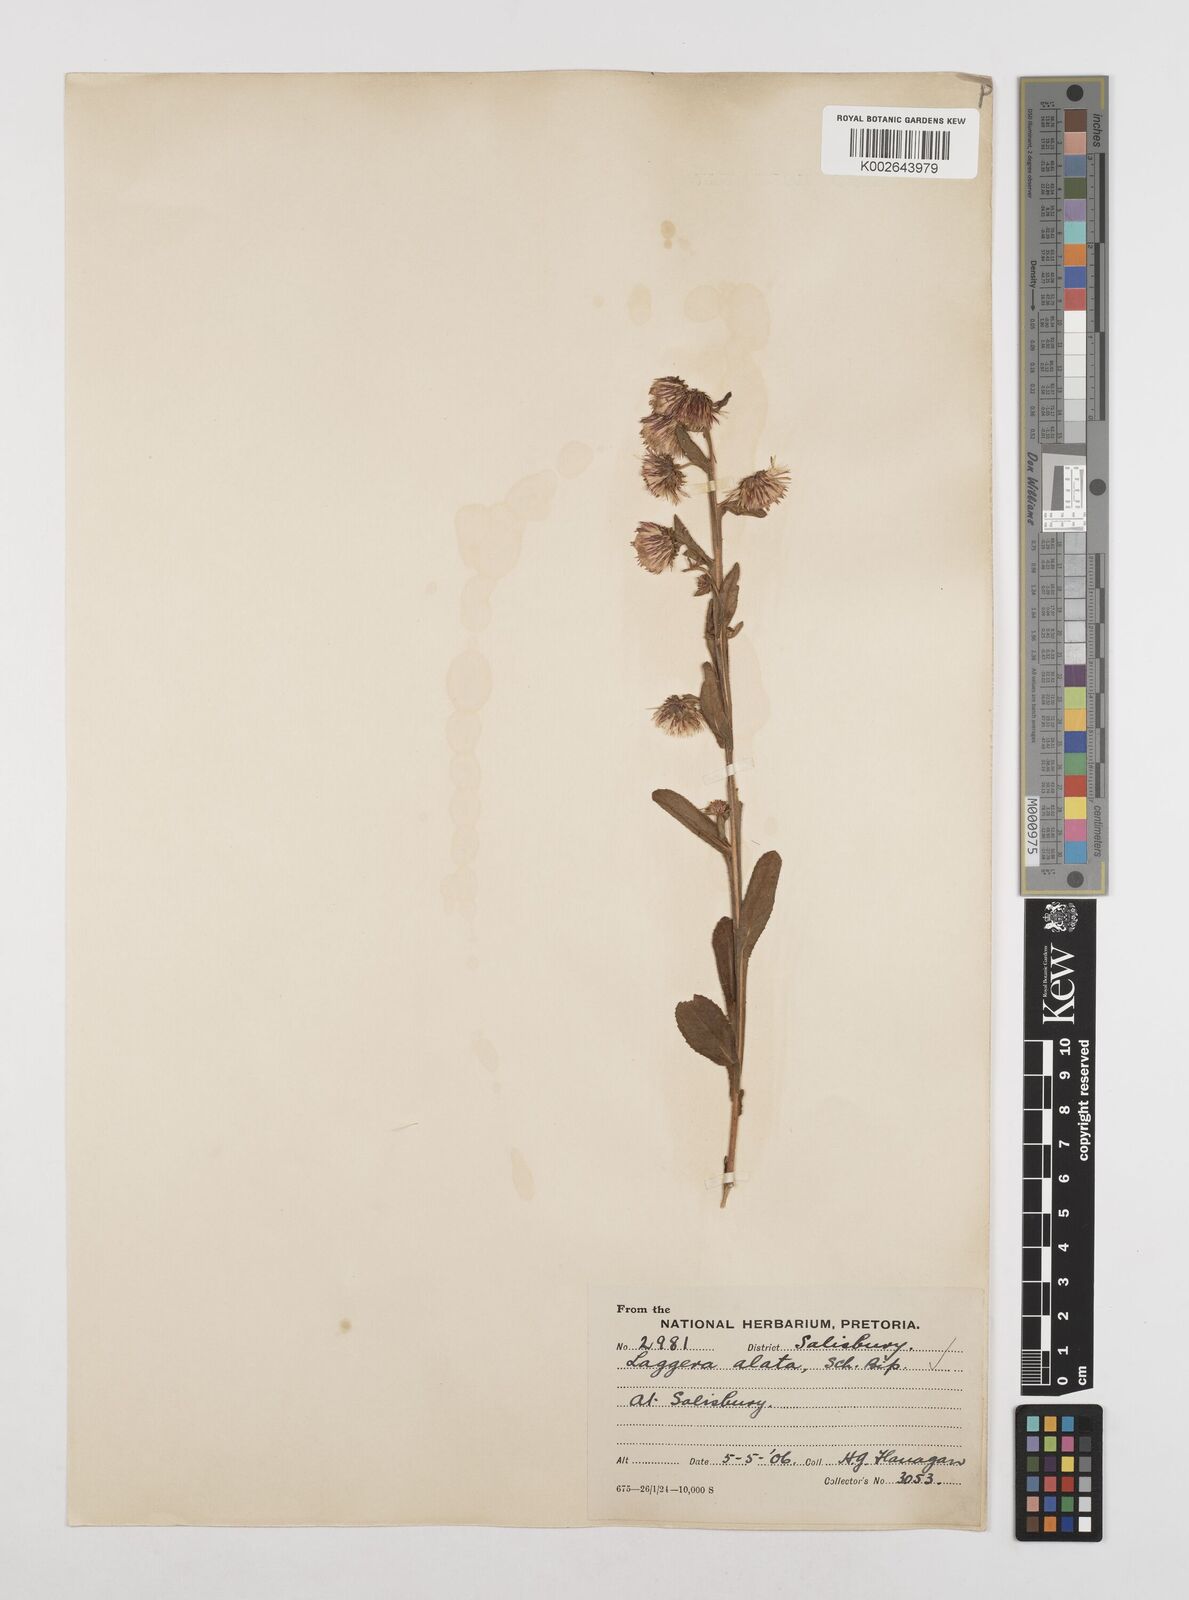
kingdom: Plantae
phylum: Tracheophyta
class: Magnoliopsida
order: Asterales
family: Asteraceae
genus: Laggera
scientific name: Laggera crispata
